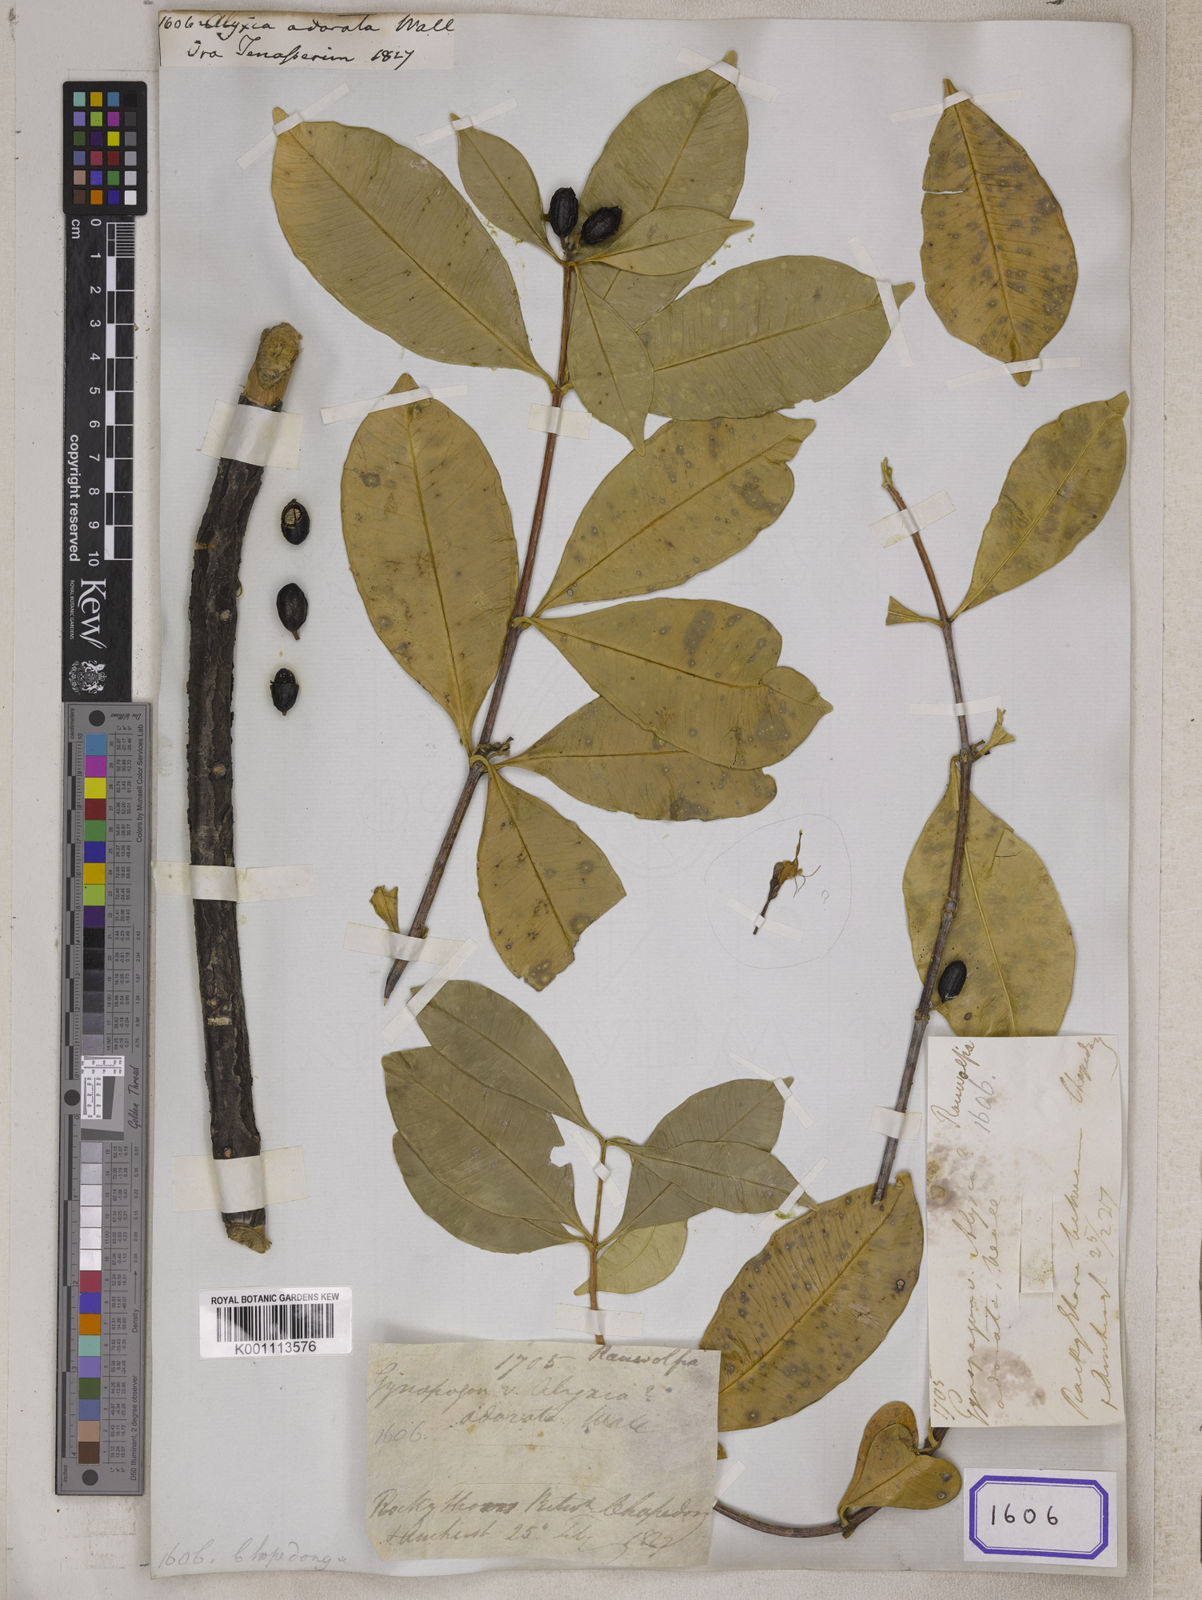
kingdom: Plantae
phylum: Tracheophyta
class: Magnoliopsida
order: Gentianales
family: Apocynaceae
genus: Alyxia
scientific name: Alyxia
